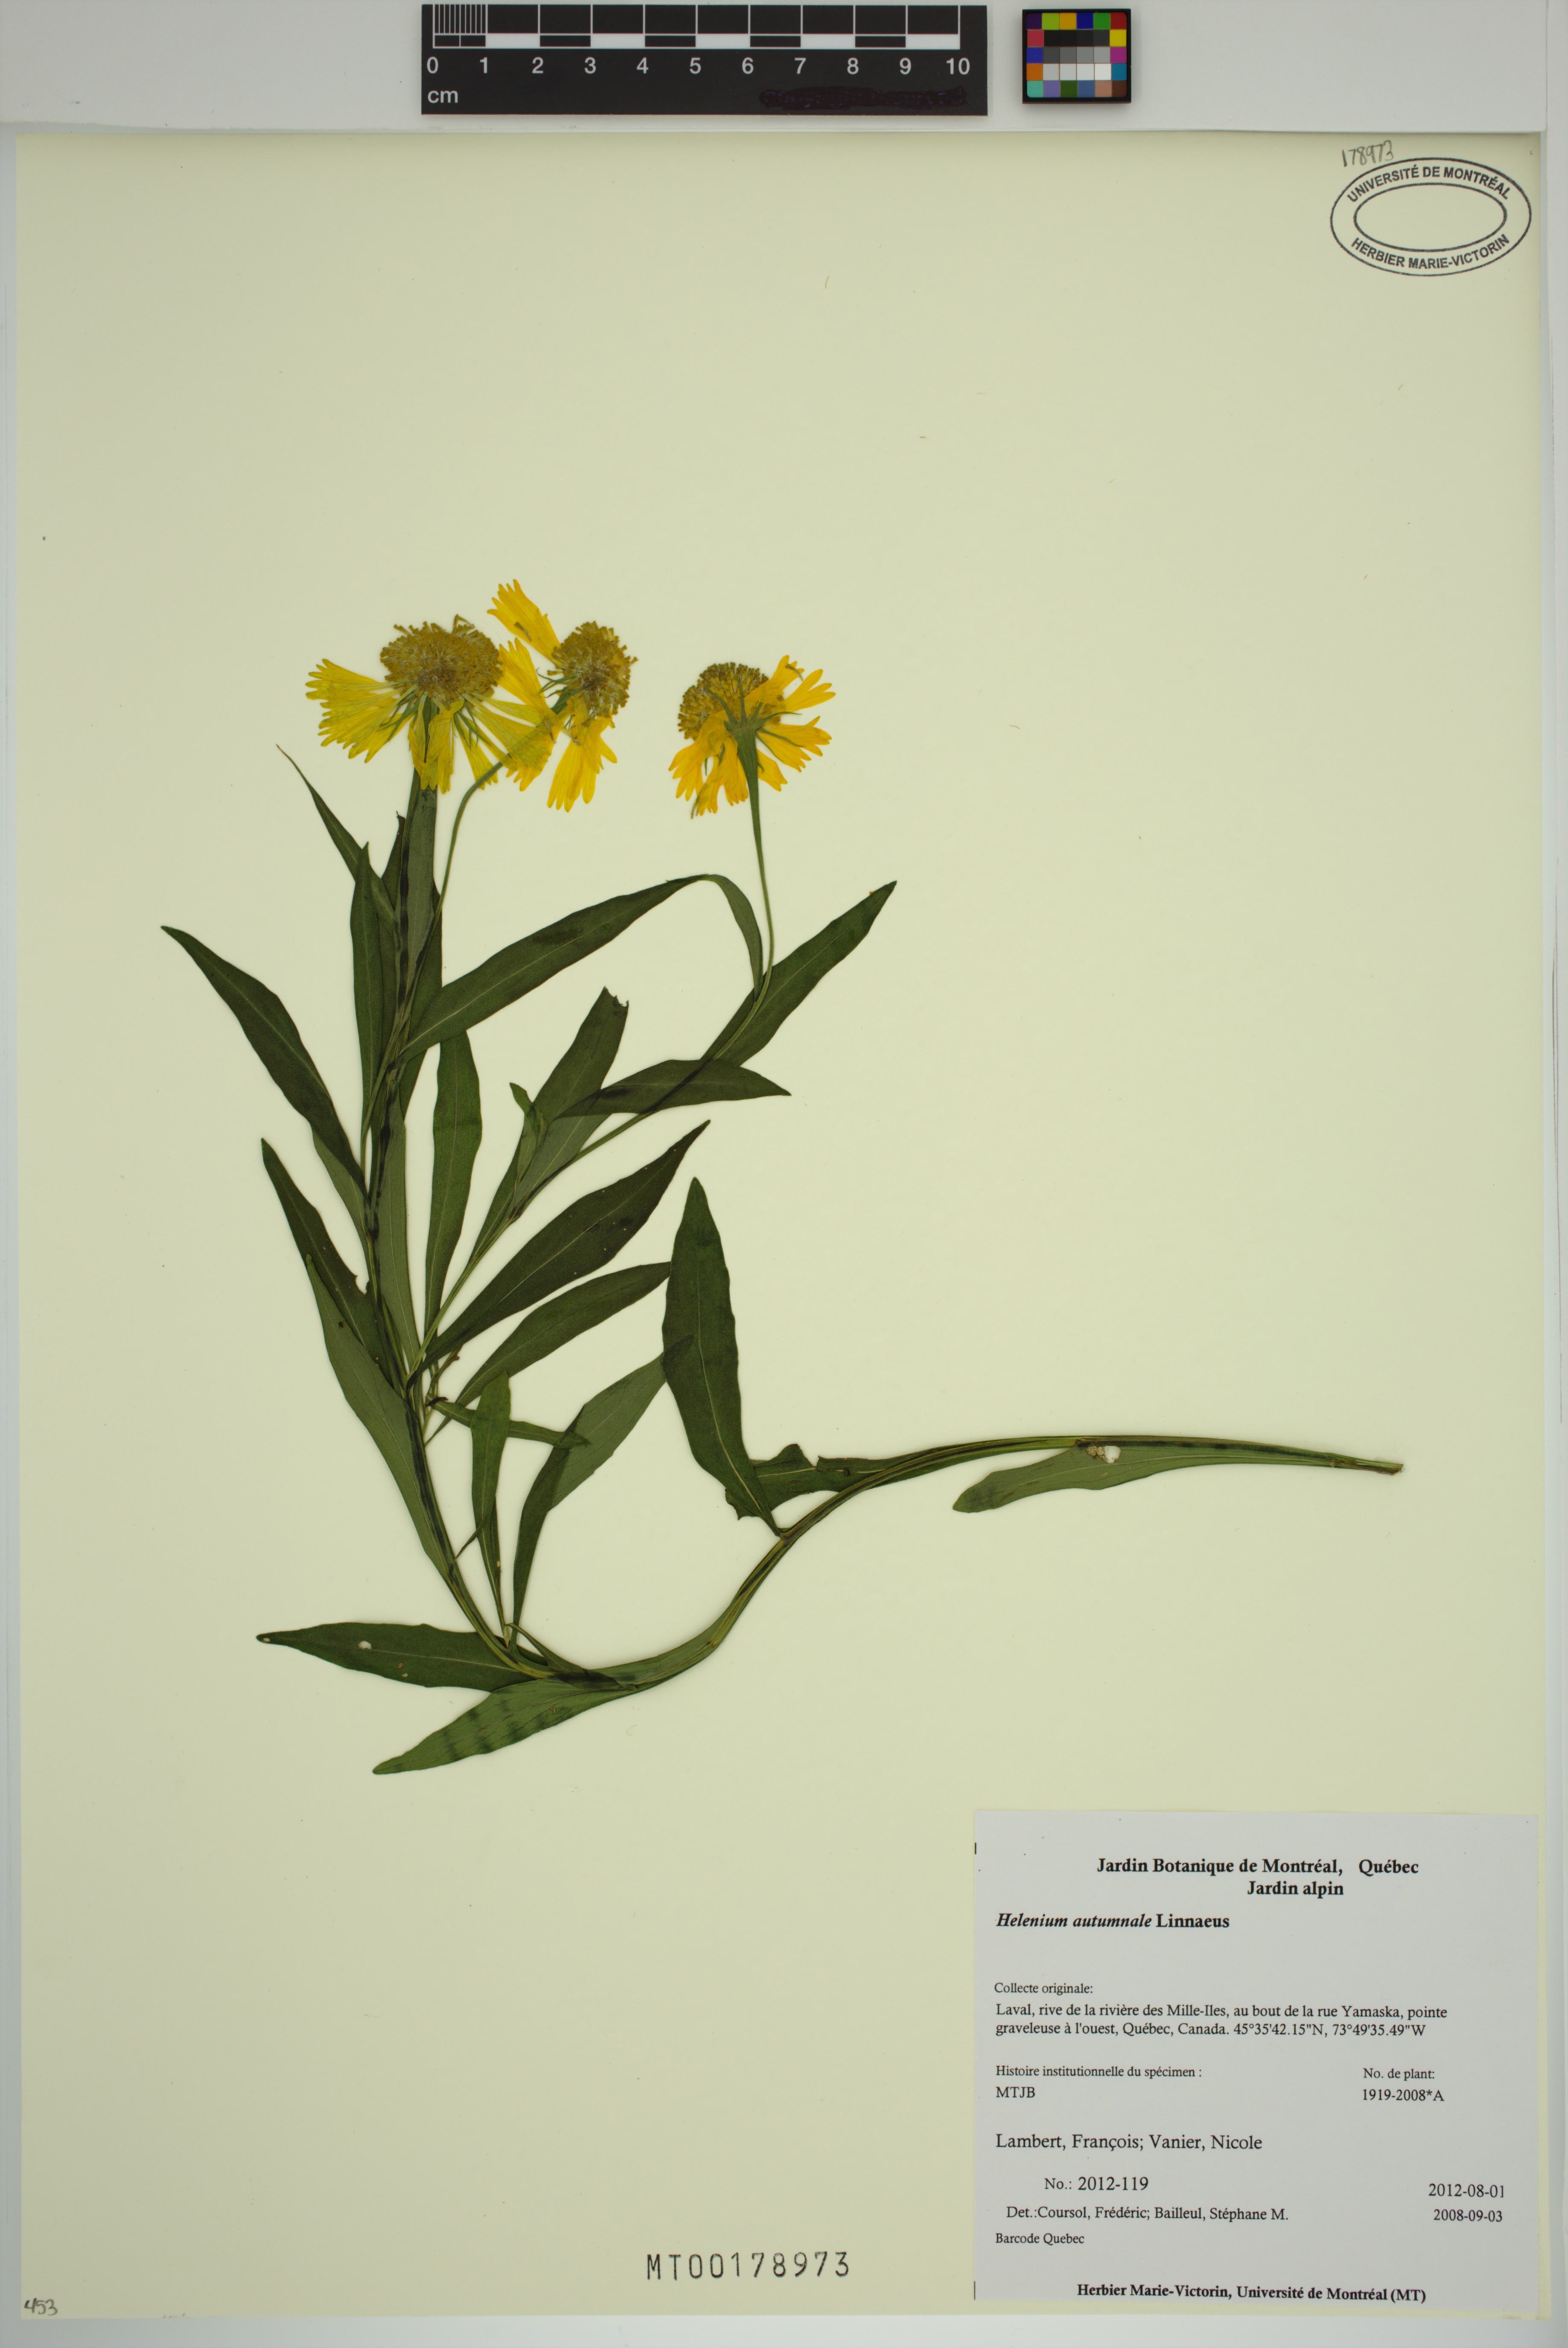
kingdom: Plantae
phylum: Tracheophyta
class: Magnoliopsida
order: Asterales
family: Asteraceae
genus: Helenium
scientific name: Helenium autumnale
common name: Sneezeweed
